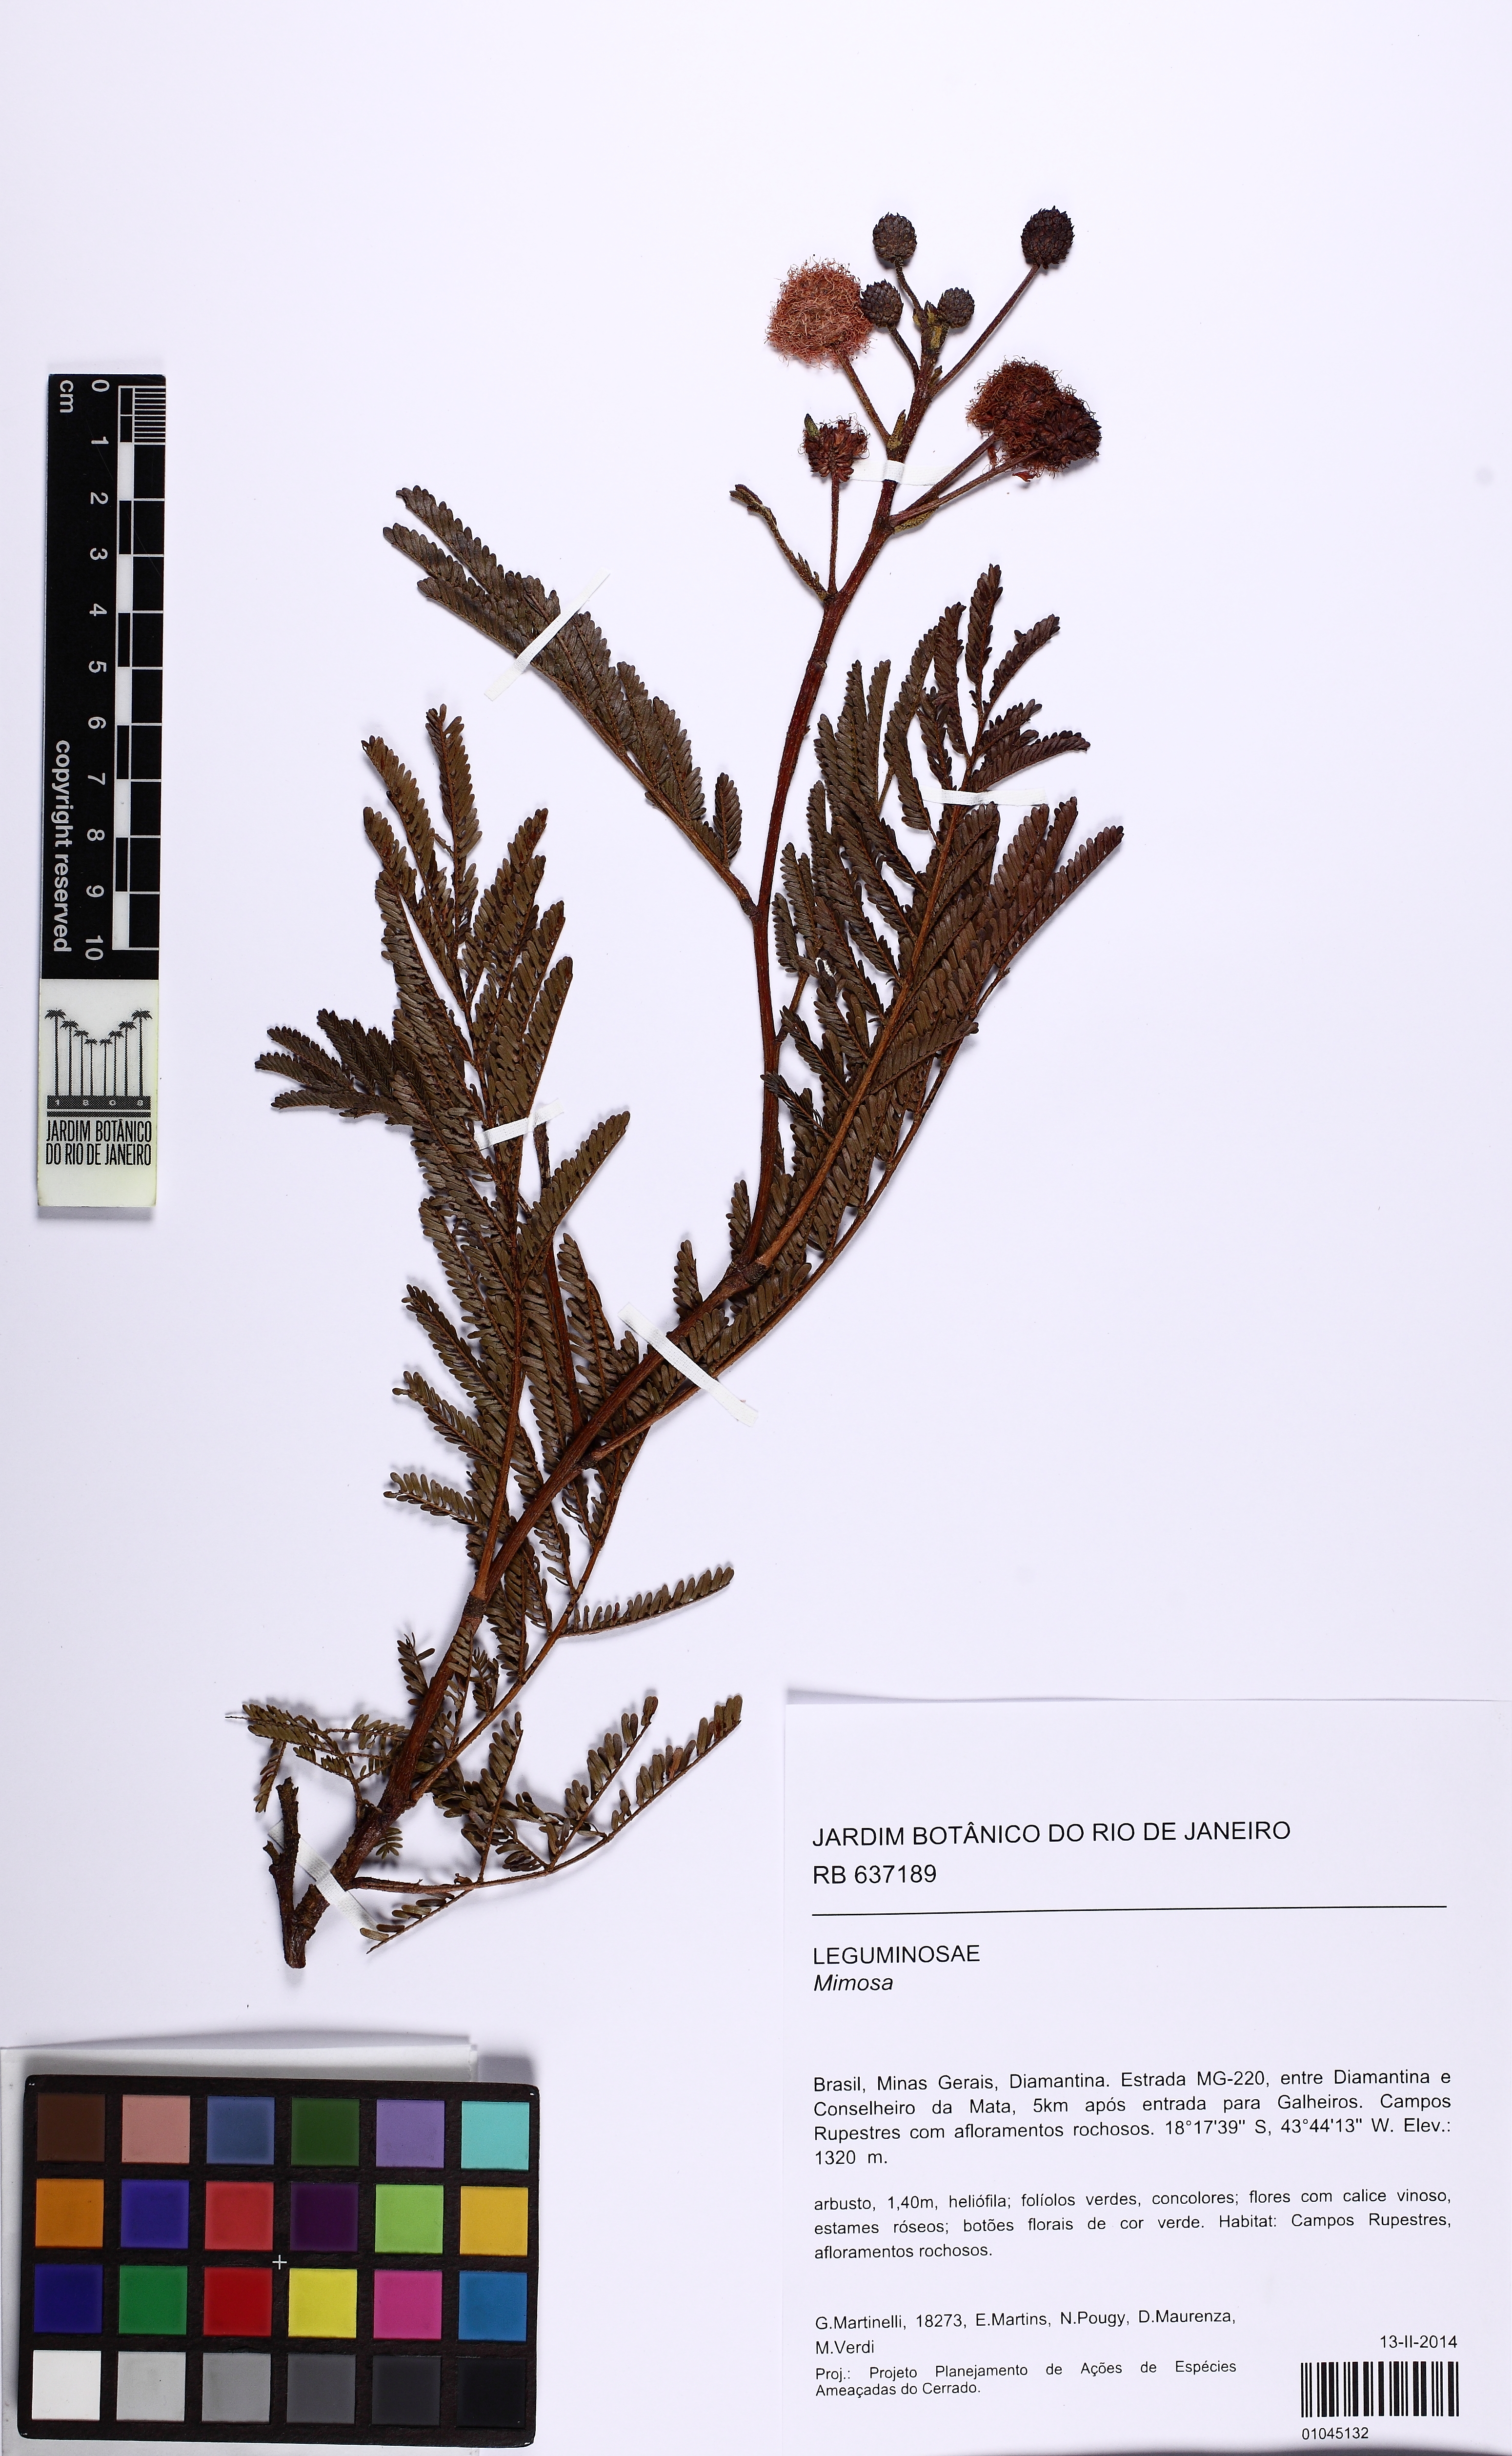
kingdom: Plantae
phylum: Tracheophyta
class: Magnoliopsida
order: Fabales
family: Fabaceae
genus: Mimosa
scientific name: Mimosa foliolosa
